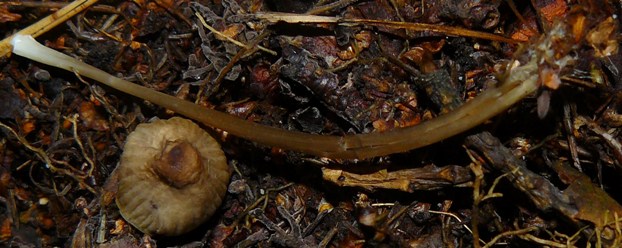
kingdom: Fungi
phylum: Basidiomycota
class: Agaricomycetes
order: Agaricales
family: Mycenaceae
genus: Mycena
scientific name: Mycena galopus
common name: hvidmælket huesvamp
